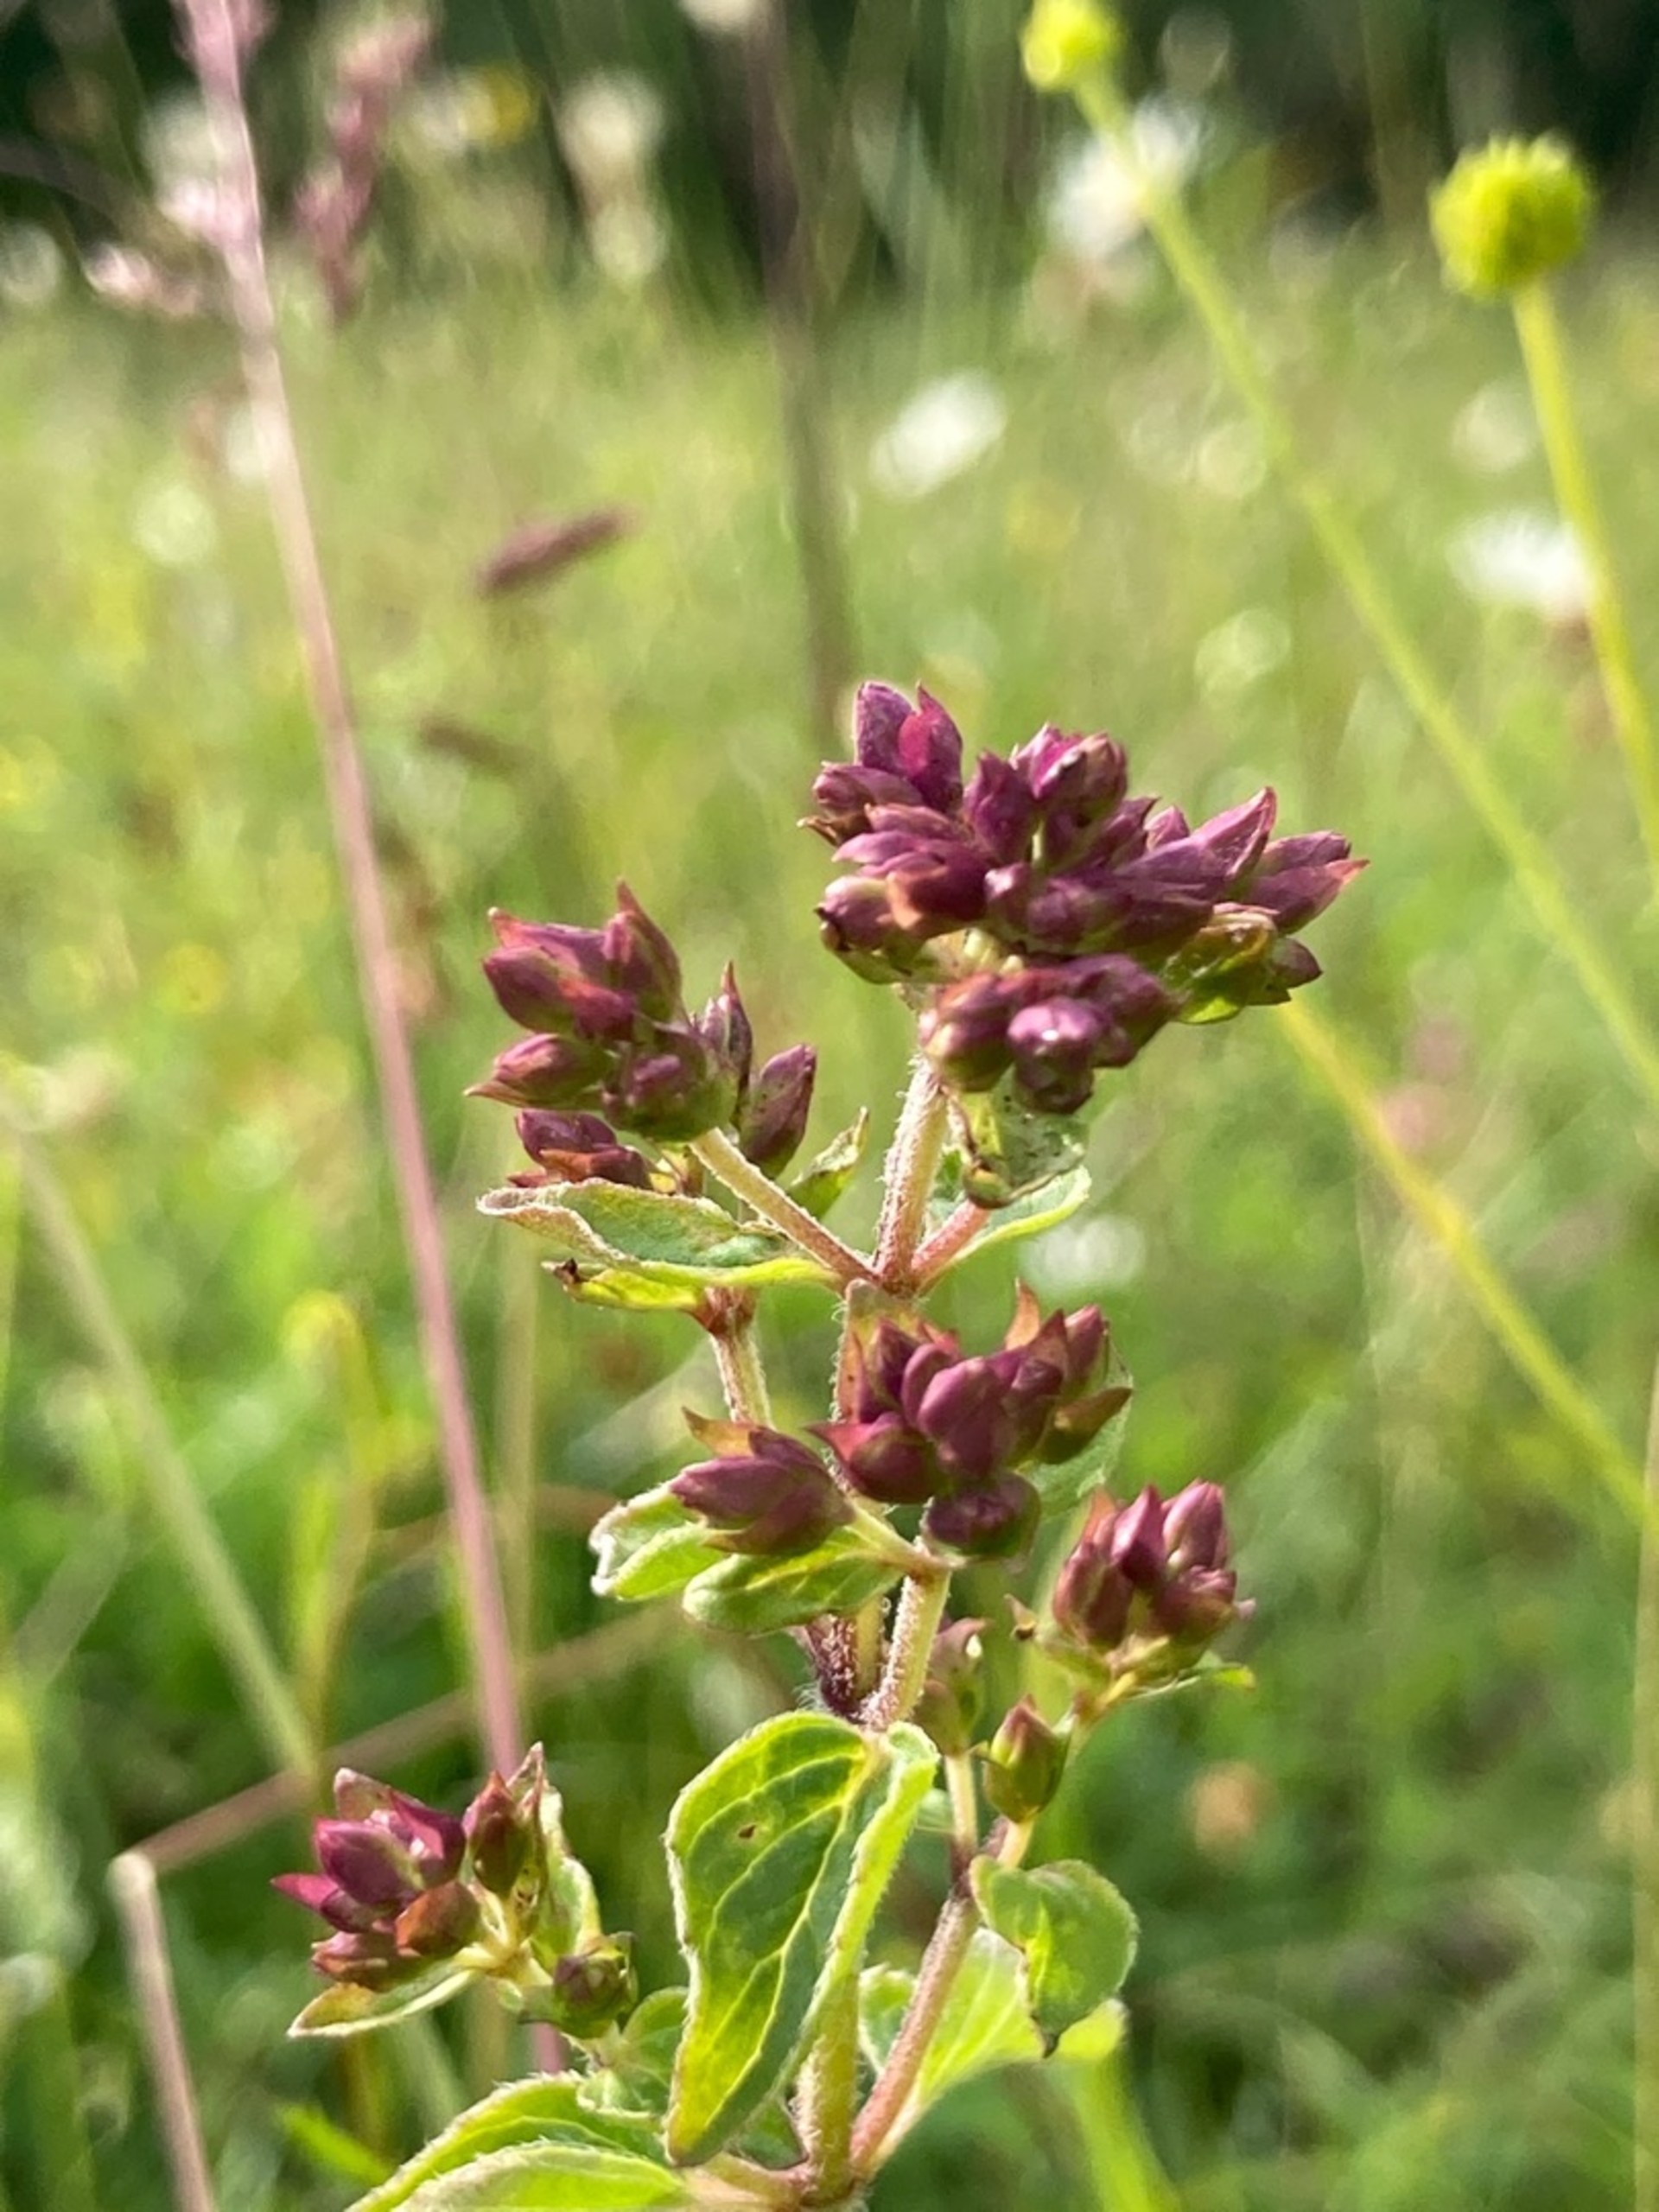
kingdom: Plantae
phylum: Tracheophyta
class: Magnoliopsida
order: Lamiales
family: Lamiaceae
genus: Origanum
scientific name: Origanum vulgare
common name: Merian
